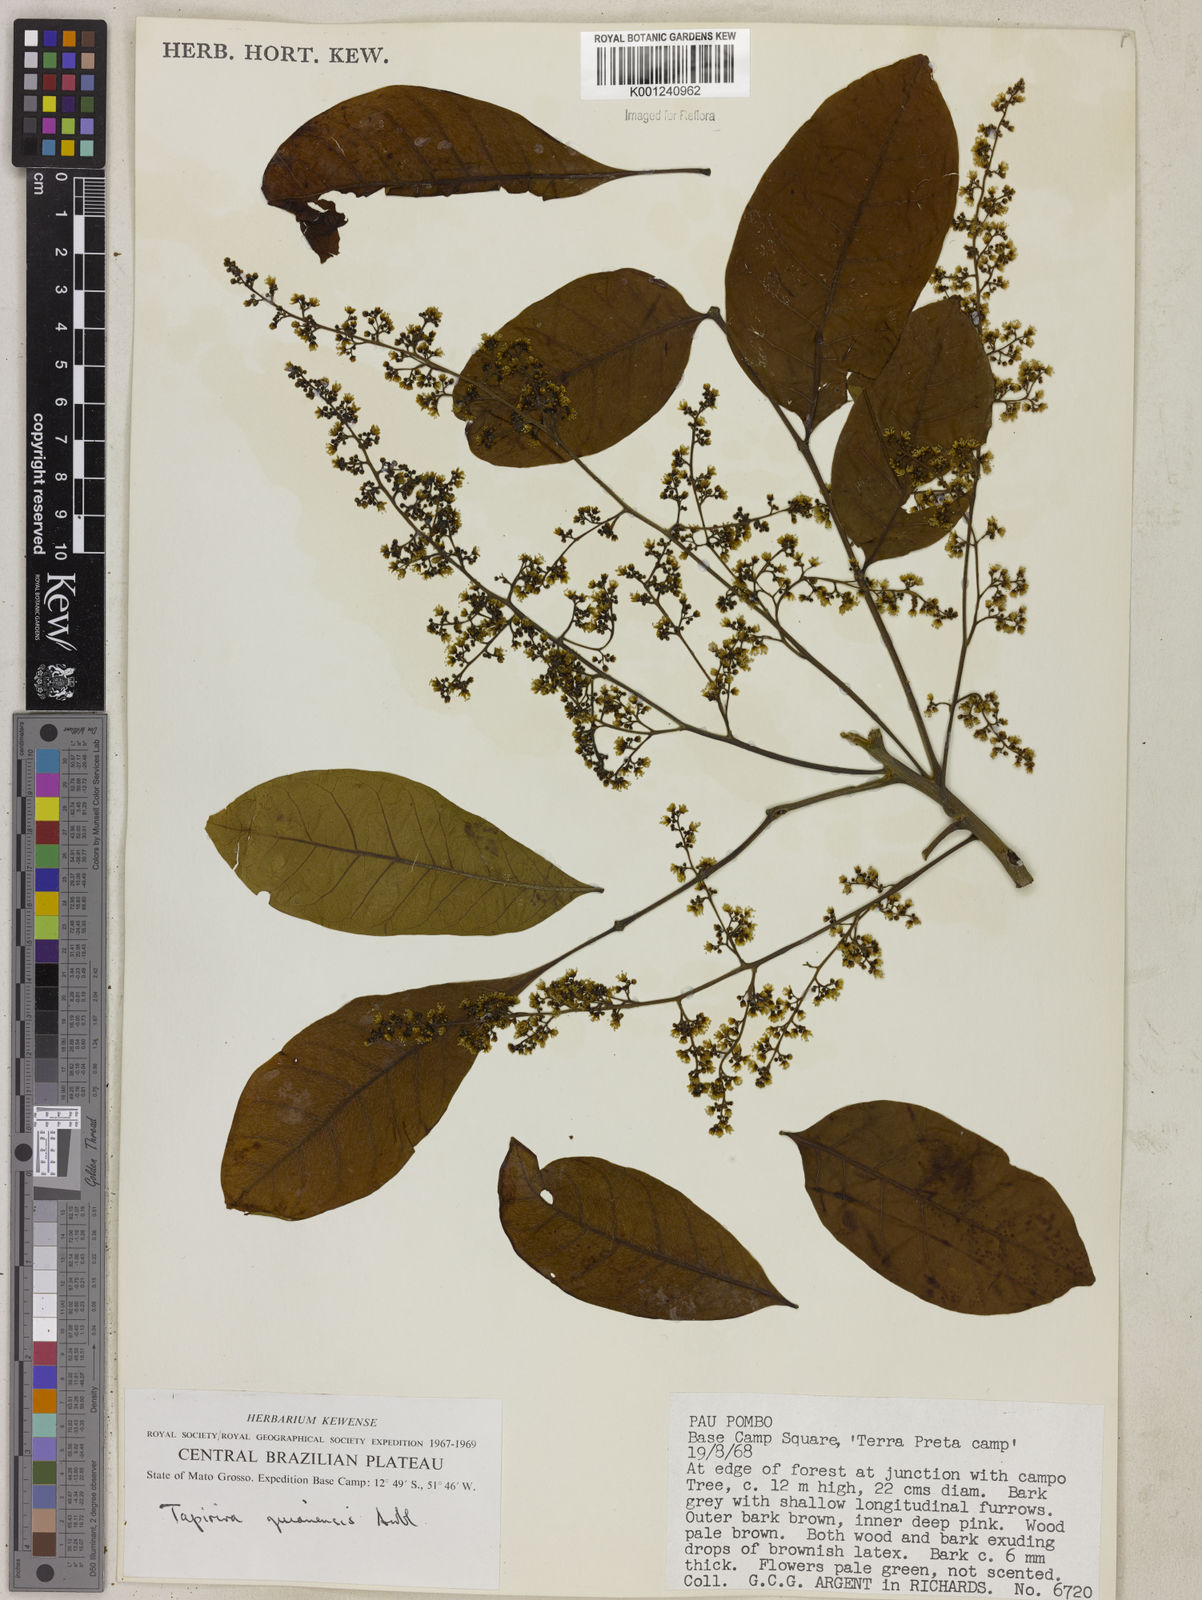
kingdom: Plantae
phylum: Tracheophyta
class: Magnoliopsida
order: Sapindales
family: Anacardiaceae
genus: Tapirira
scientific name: Tapirira guianensis
